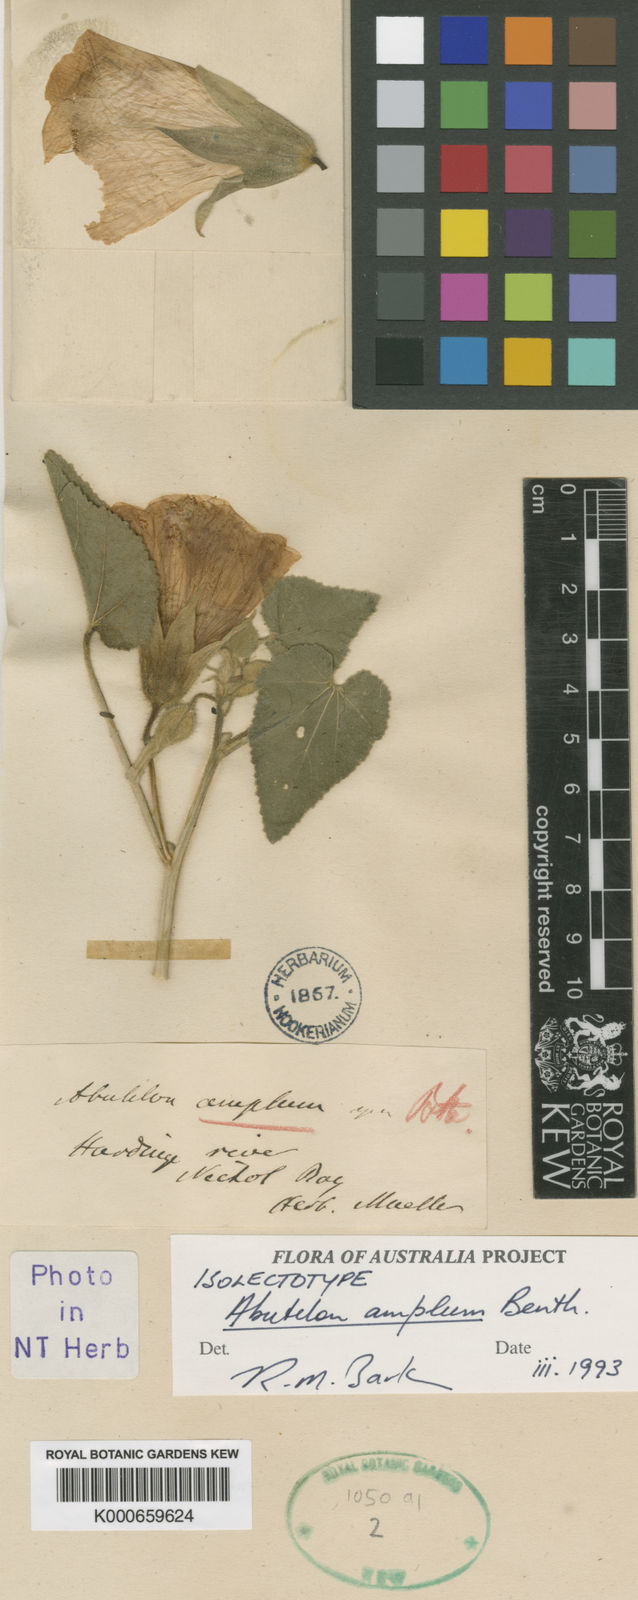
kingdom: Plantae
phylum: Tracheophyta
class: Magnoliopsida
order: Malvales
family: Malvaceae
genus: Abutilon
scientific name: Abutilon amplum
